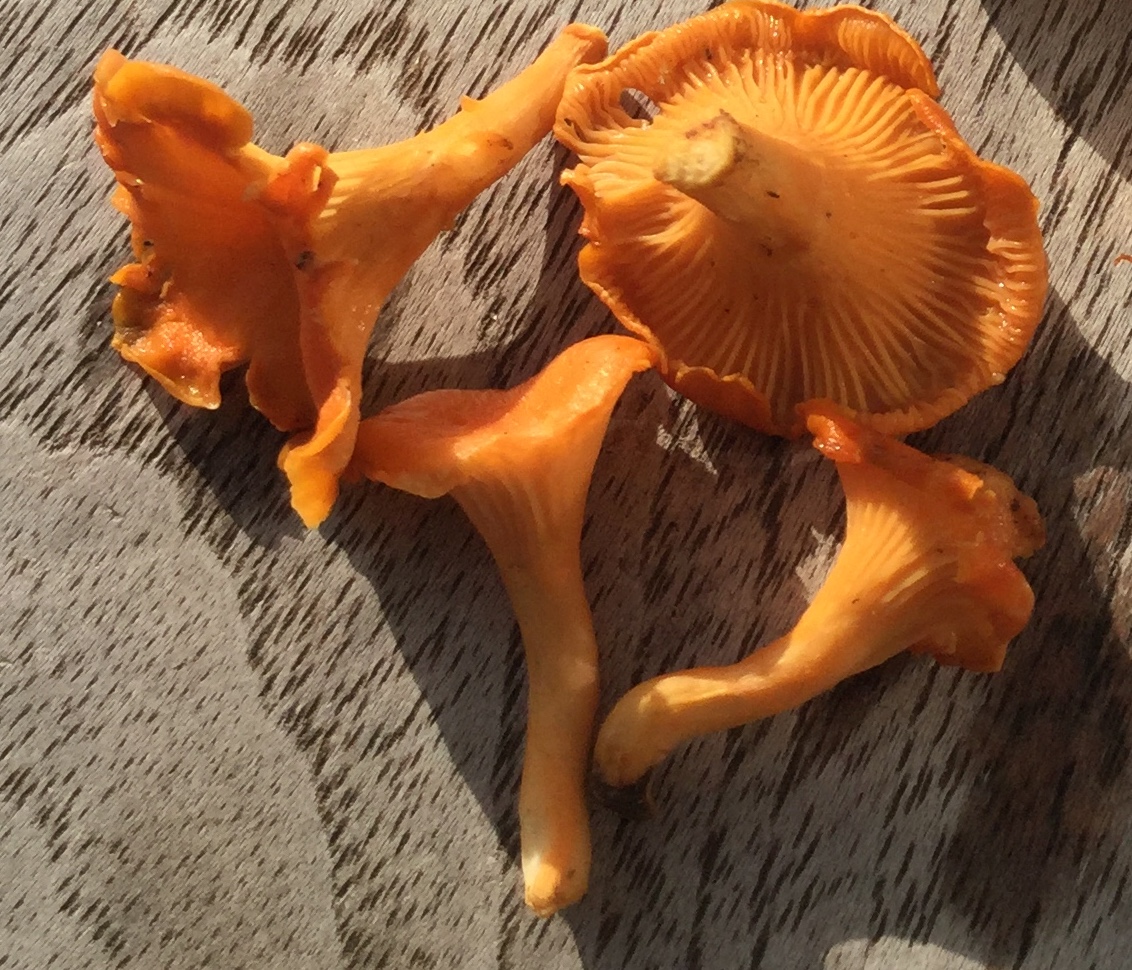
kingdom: Fungi
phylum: Basidiomycota
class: Agaricomycetes
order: Cantharellales
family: Hydnaceae
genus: Cantharellus
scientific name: Cantharellus friesii
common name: abrikos-kantarel
